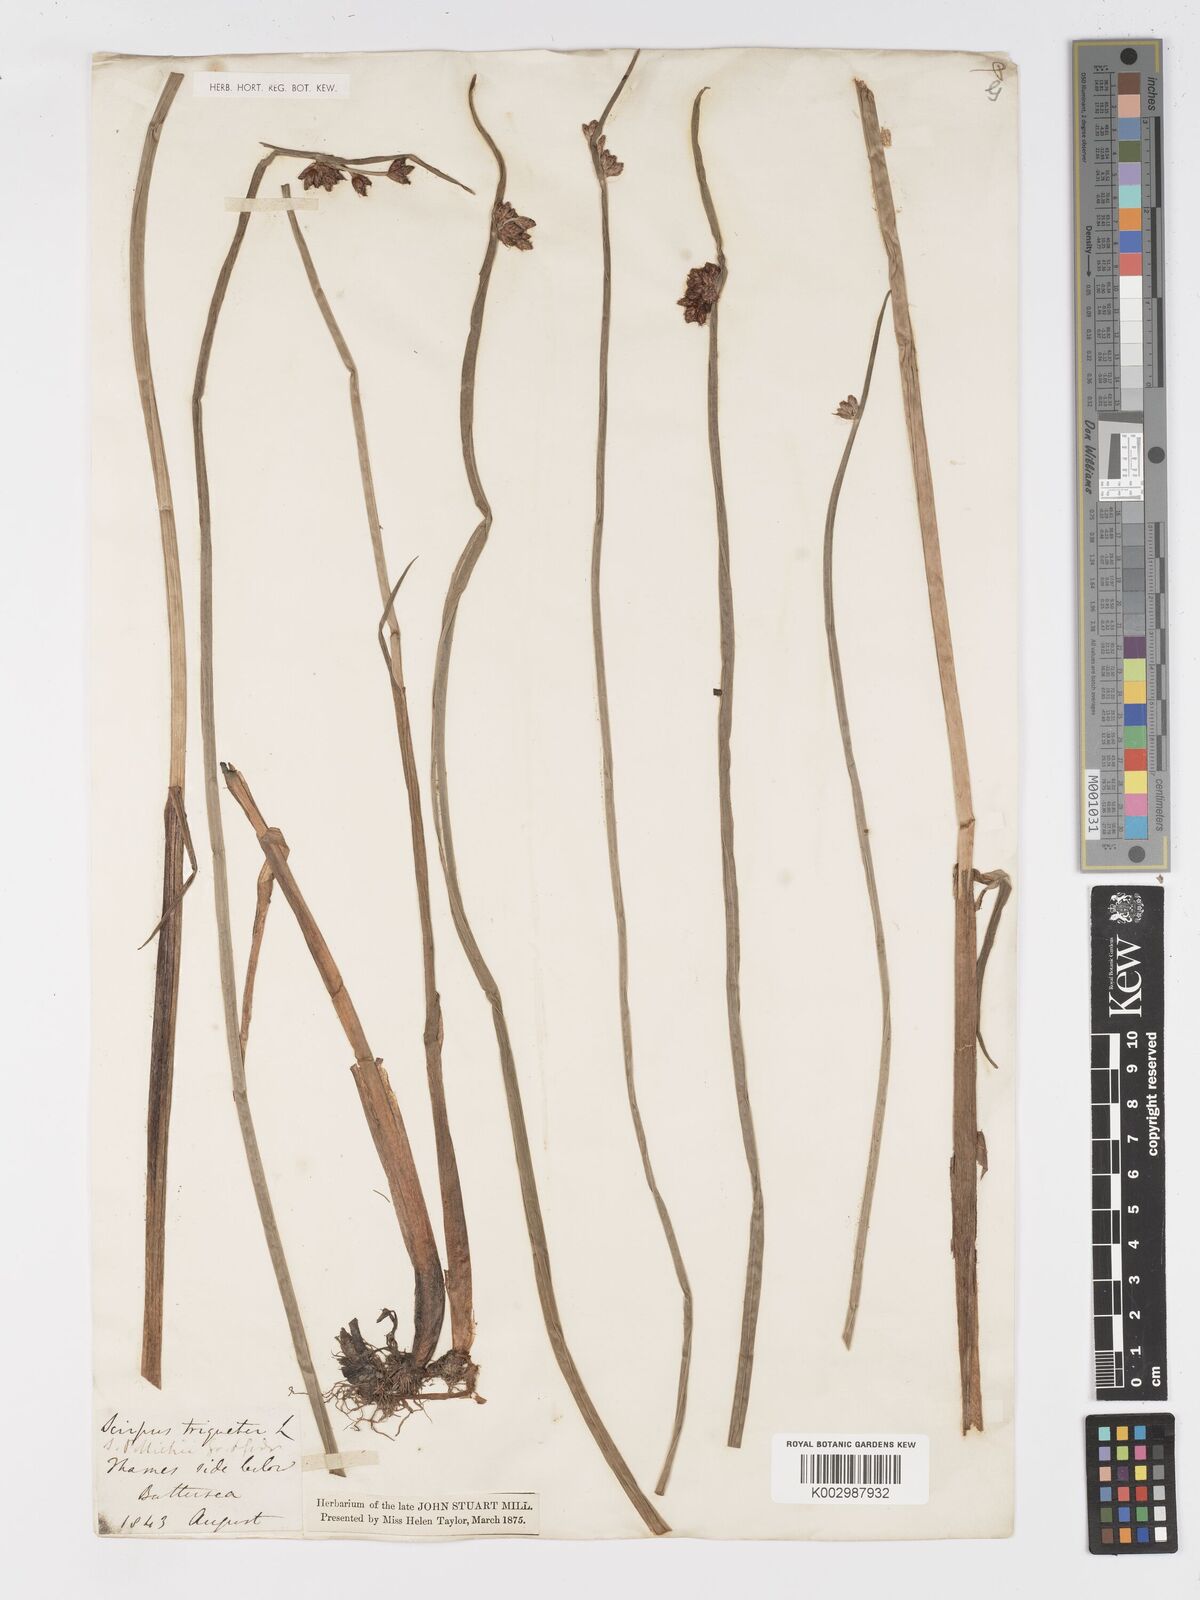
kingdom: Plantae
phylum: Tracheophyta
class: Liliopsida
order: Poales
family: Cyperaceae
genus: Schoenoplectus
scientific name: Schoenoplectus triqueter
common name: Triangular club-rush
